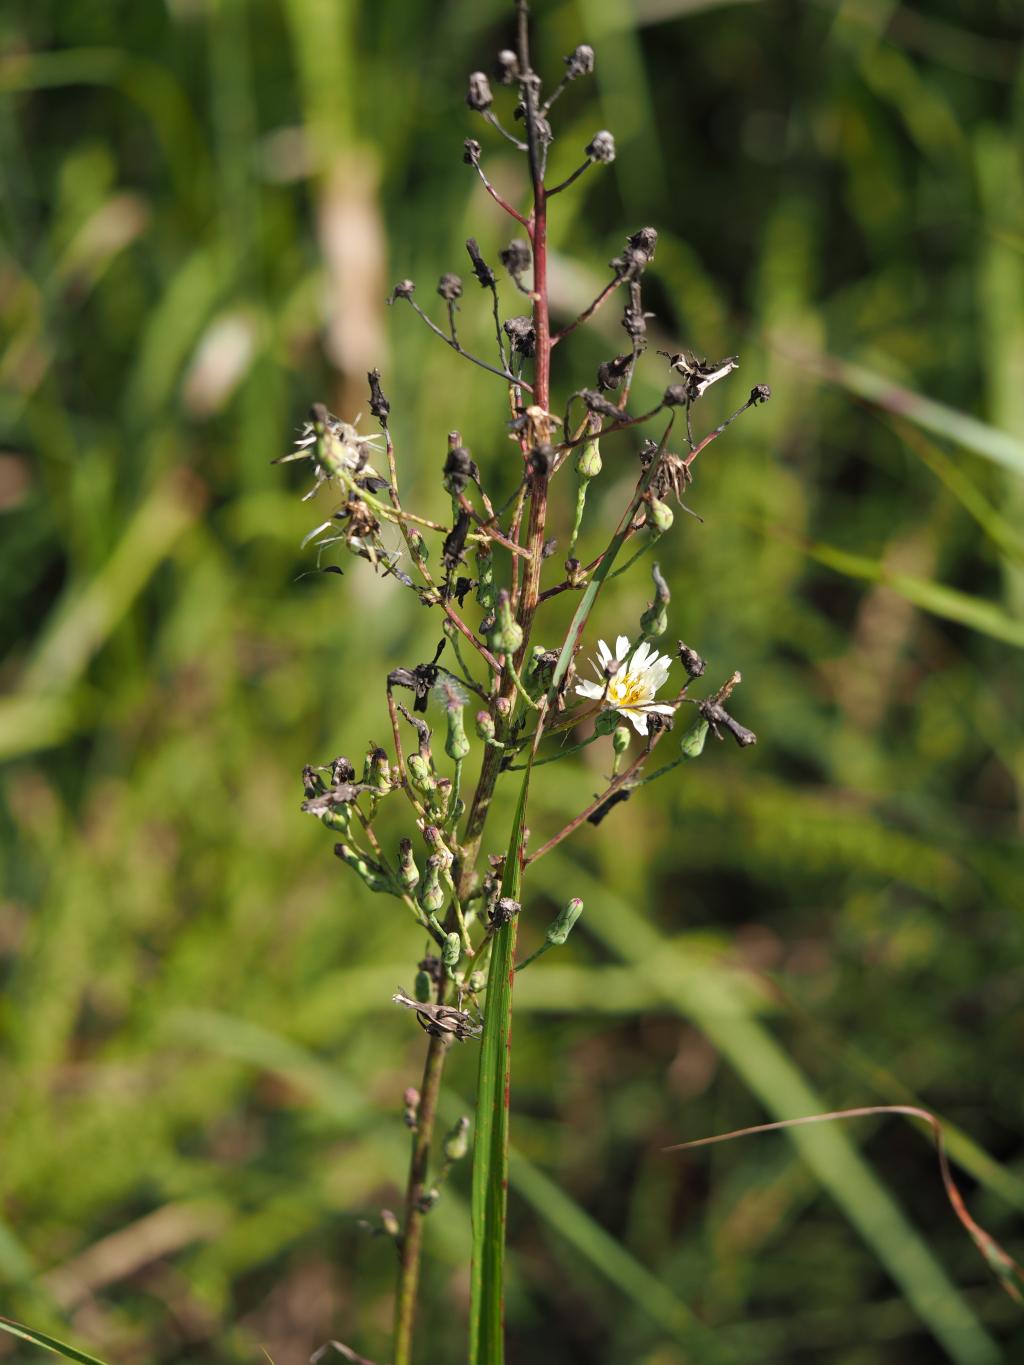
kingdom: Plantae
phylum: Tracheophyta
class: Magnoliopsida
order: Asterales
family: Asteraceae
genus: Lactuca
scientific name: Lactuca indica
